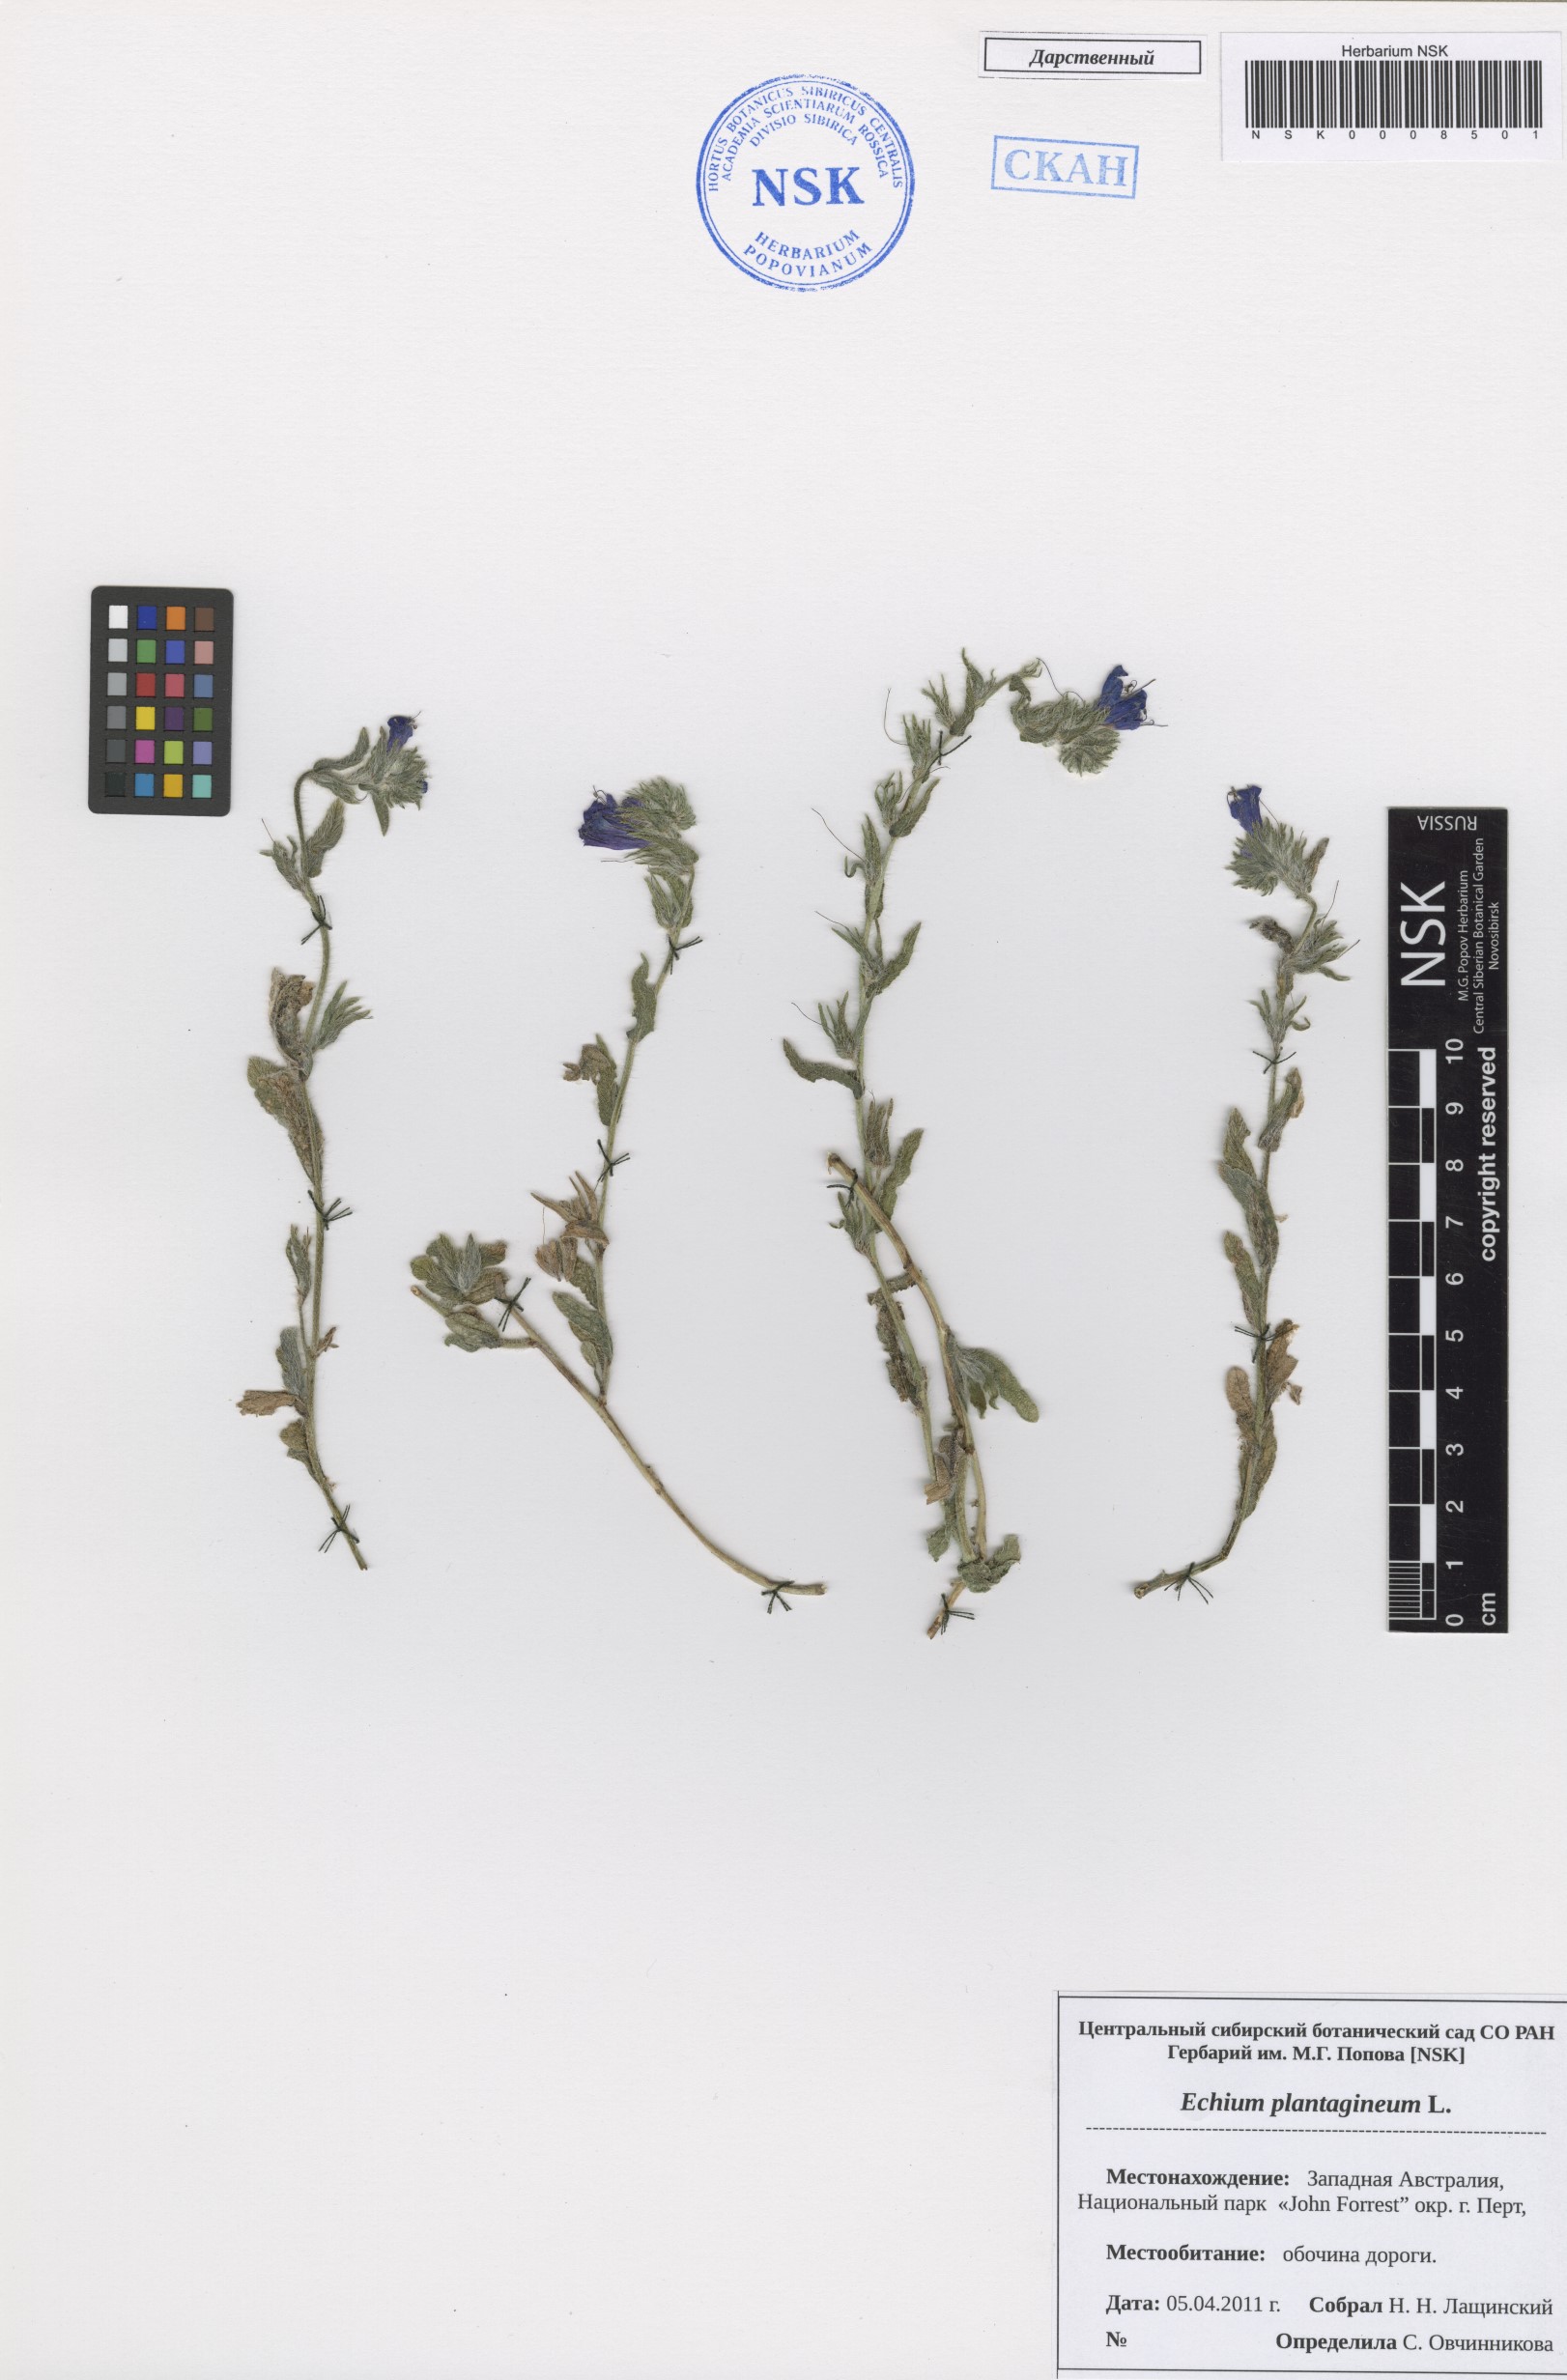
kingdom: Plantae
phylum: Tracheophyta
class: Magnoliopsida
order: Boraginales
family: Boraginaceae
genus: Echium
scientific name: Echium plantagineum
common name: Purple viper's-bugloss
